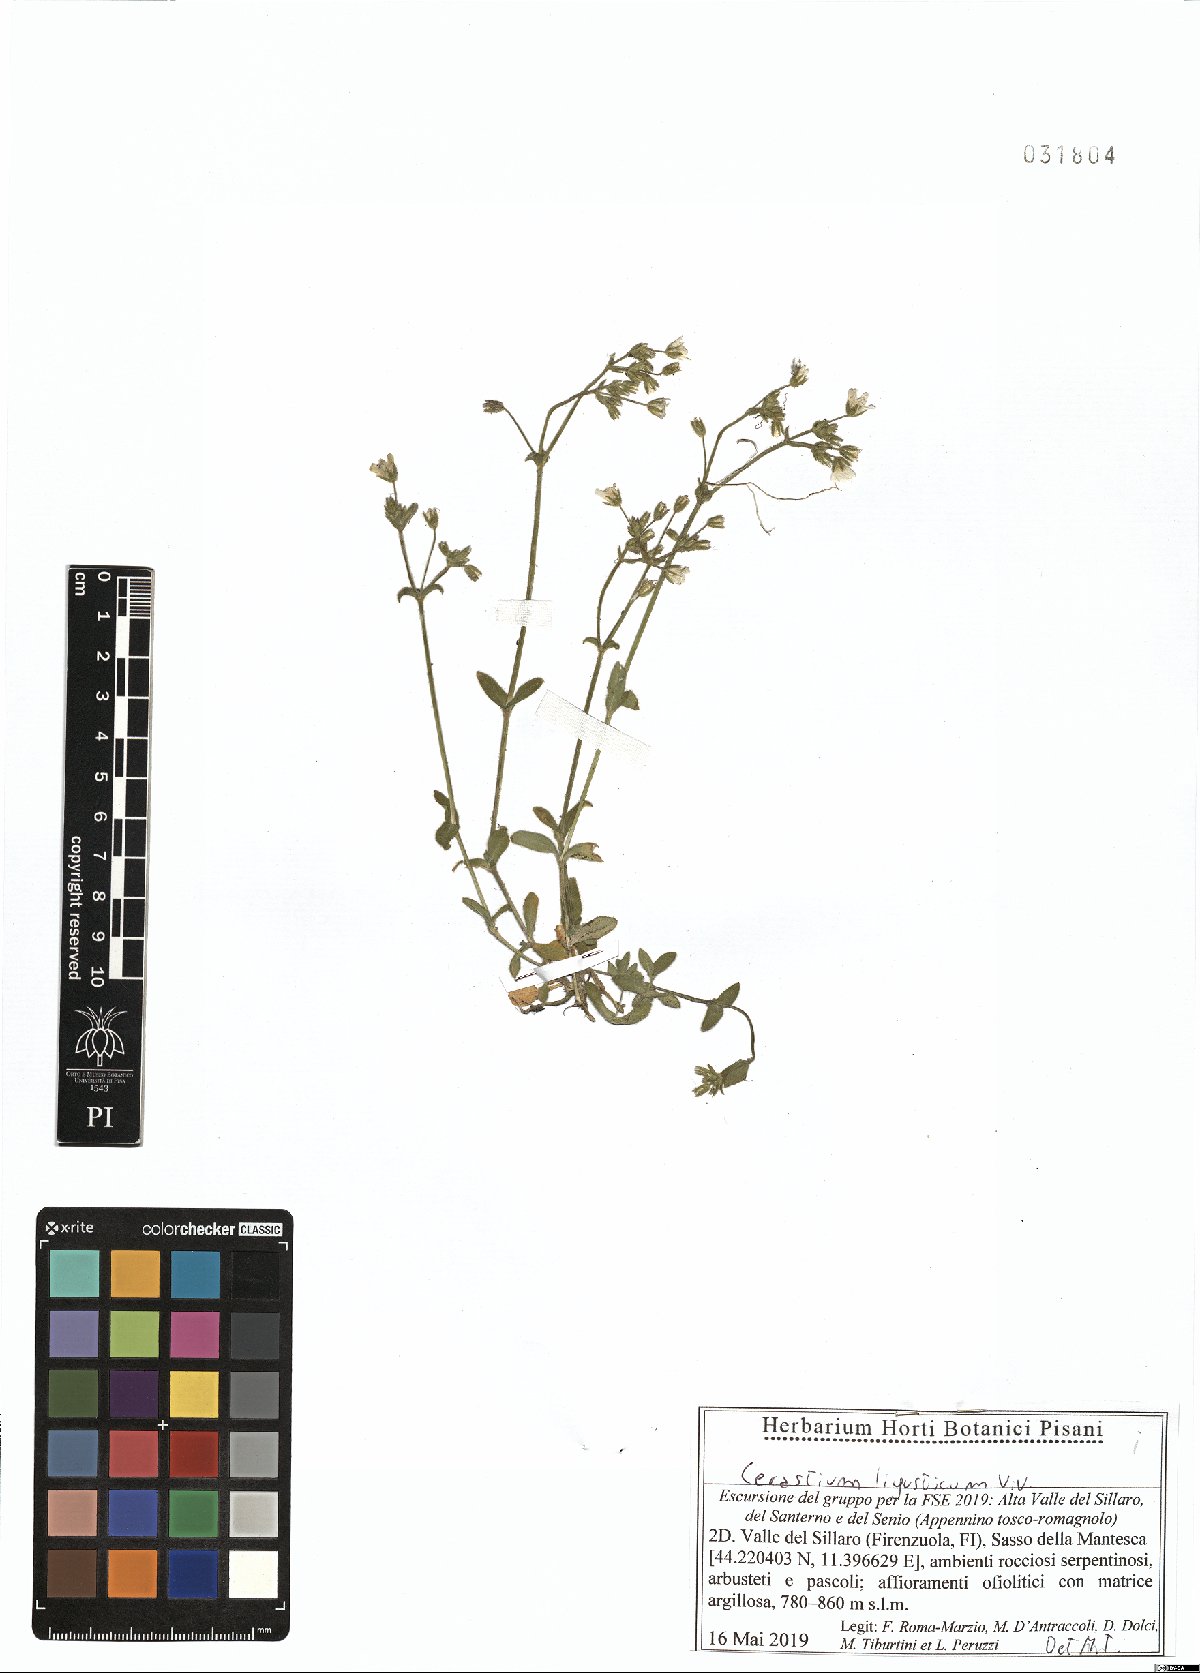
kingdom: Plantae
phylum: Tracheophyta
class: Magnoliopsida
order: Caryophyllales
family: Caryophyllaceae
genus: Cerastium
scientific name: Cerastium ligusticum
